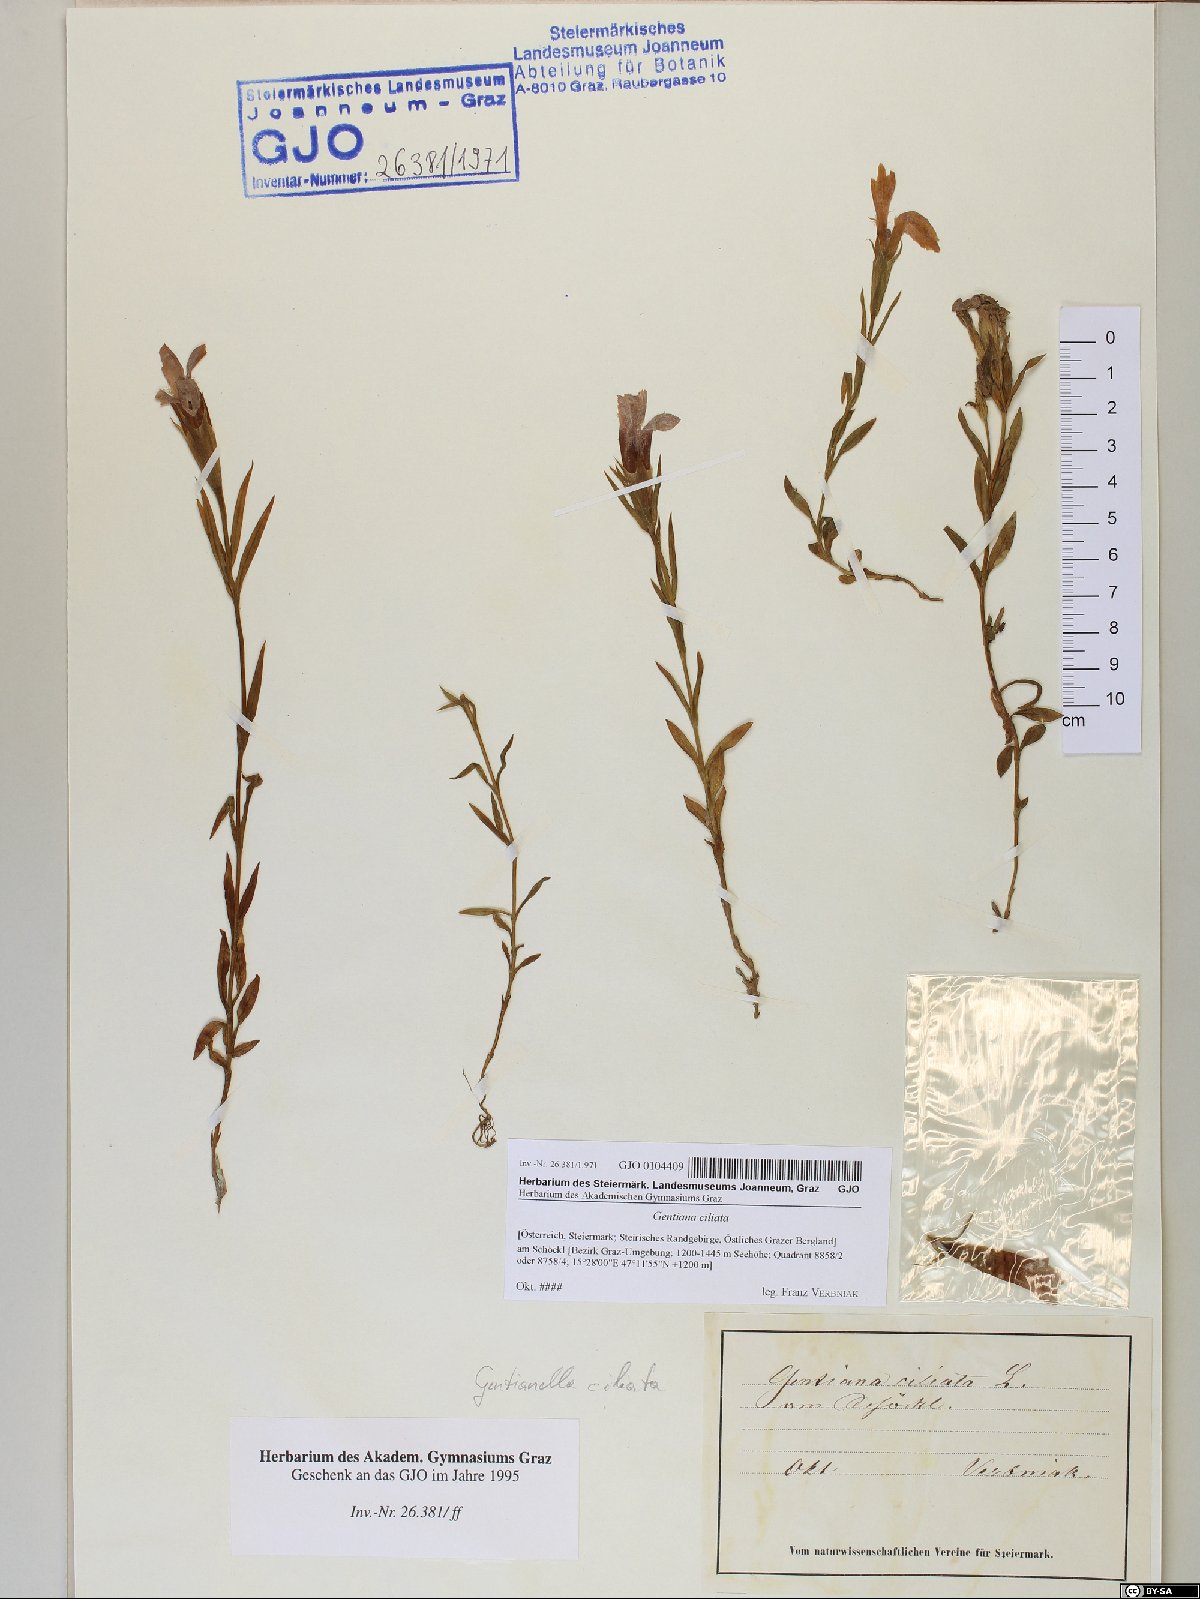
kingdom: Plantae
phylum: Tracheophyta
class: Magnoliopsida
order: Gentianales
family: Gentianaceae
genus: Gentianopsis
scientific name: Gentianopsis ciliata
